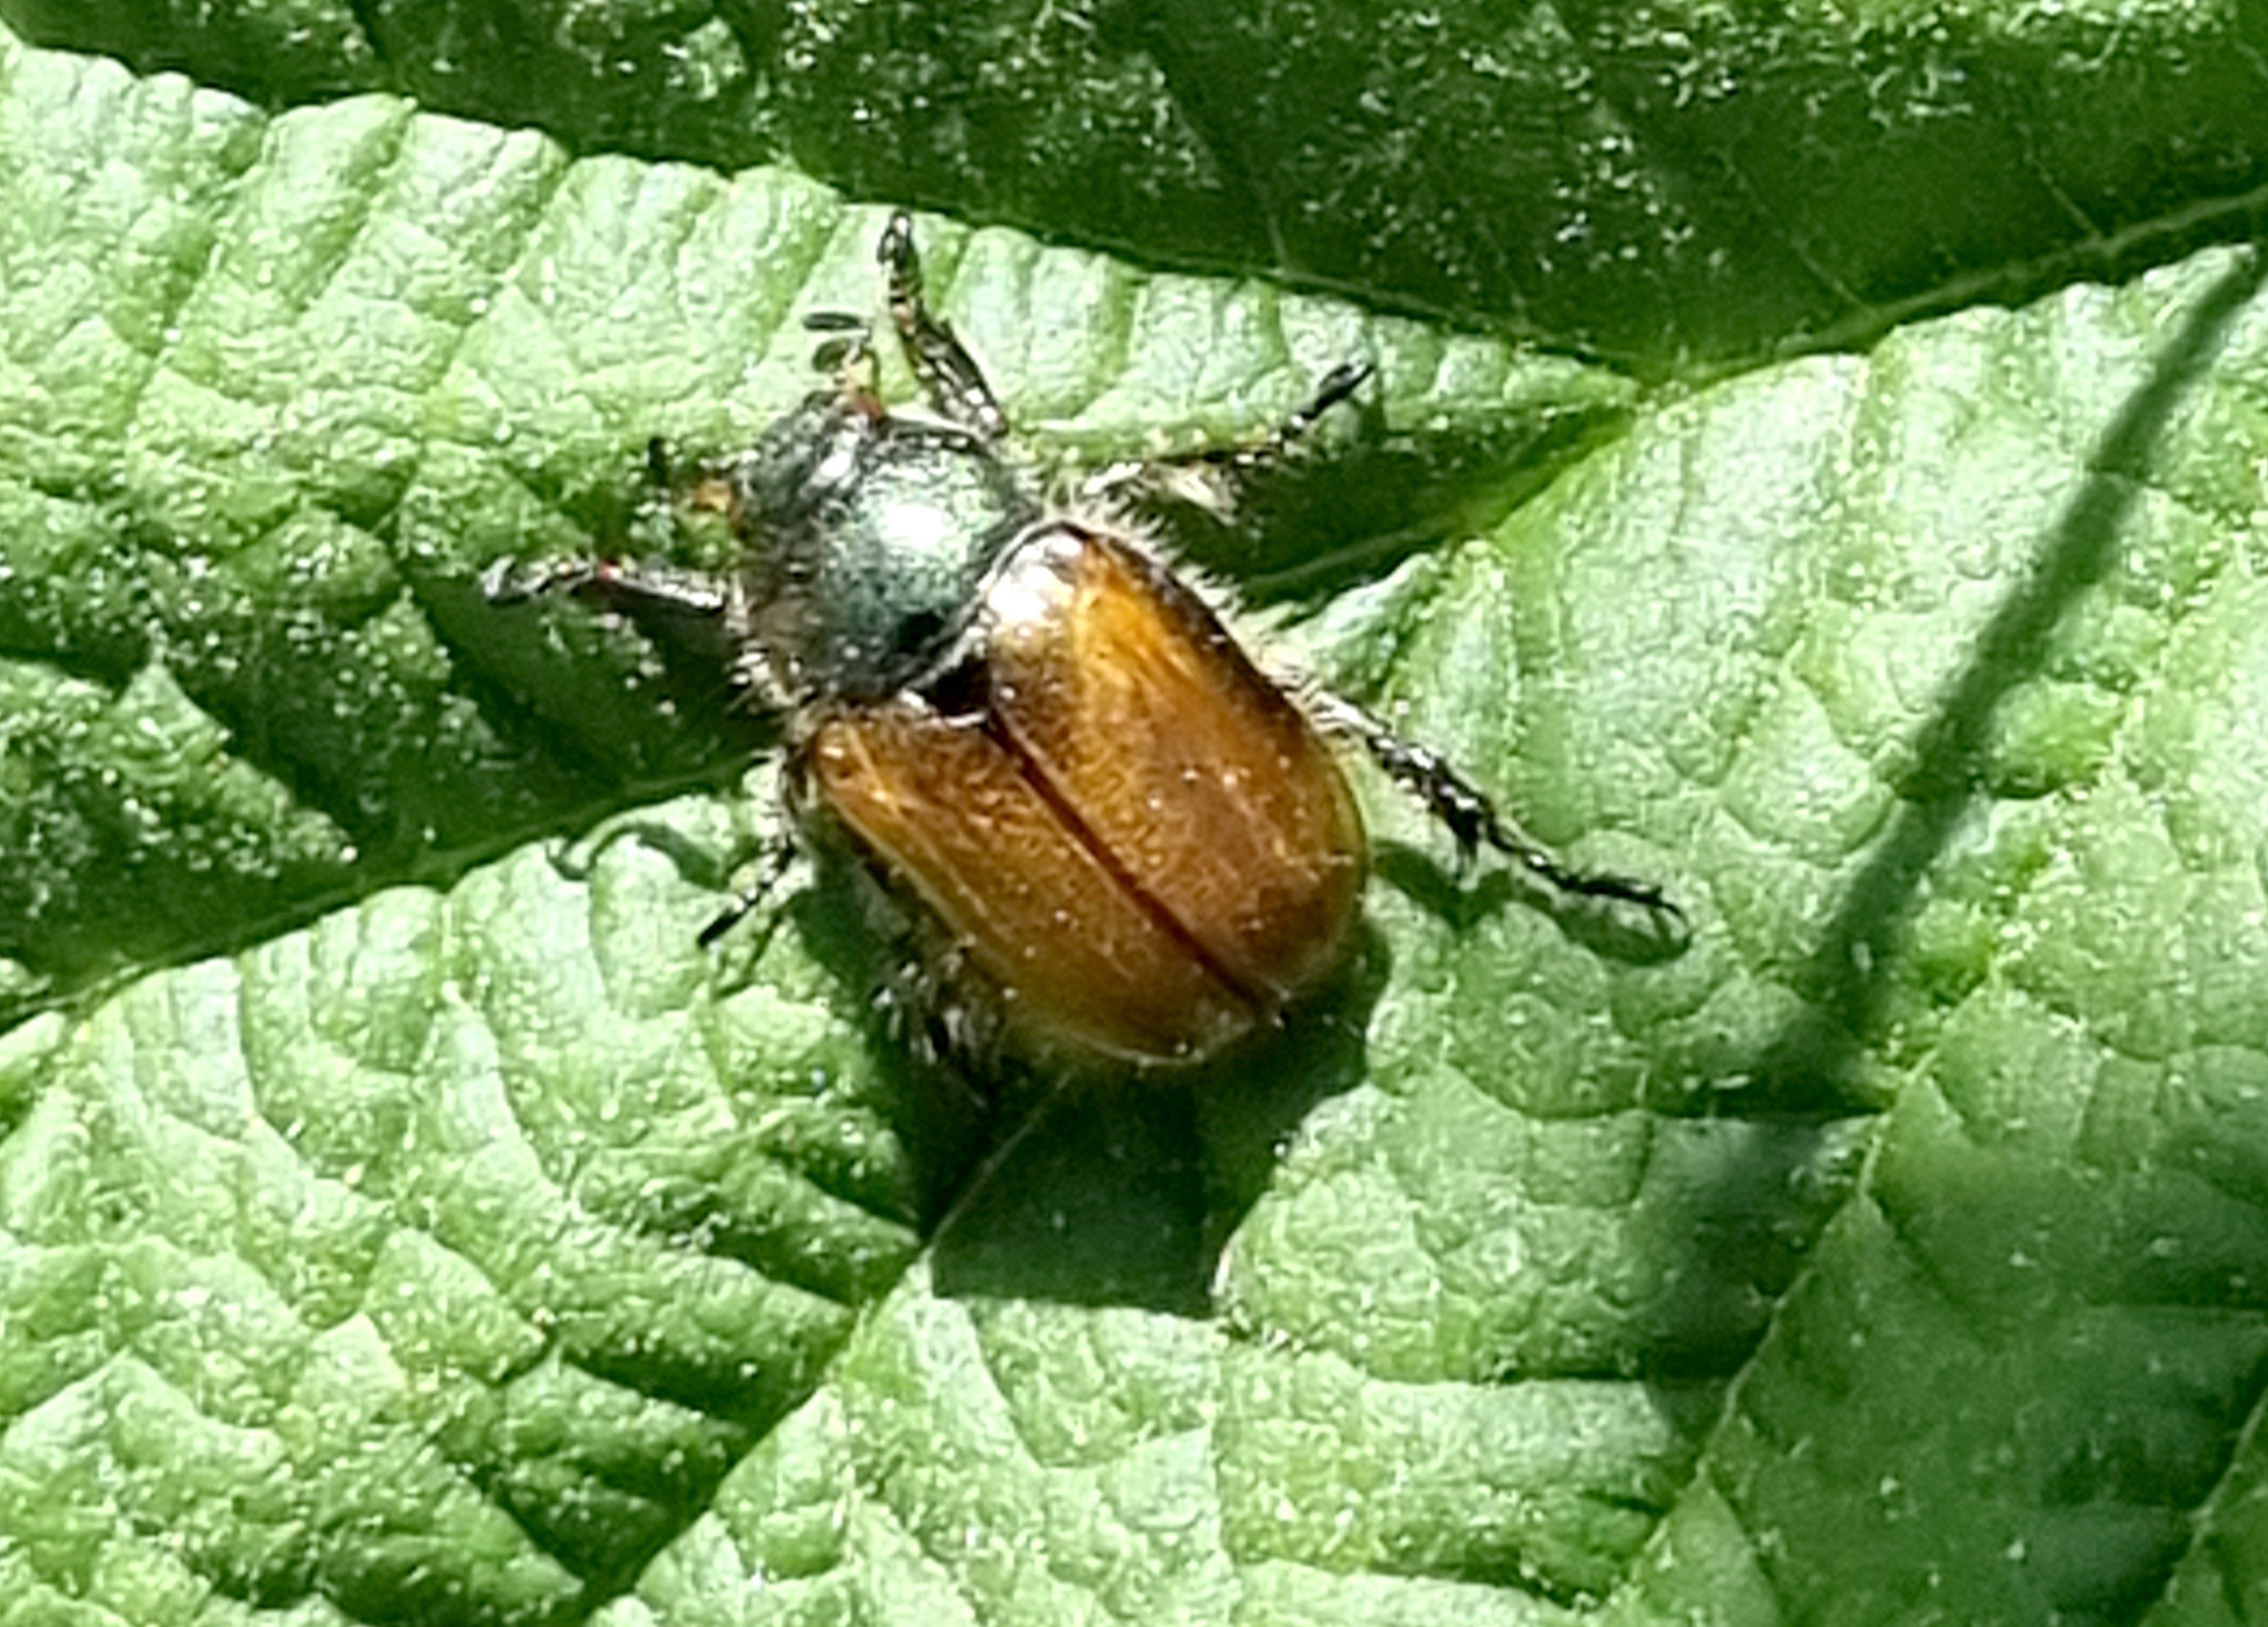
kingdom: Animalia
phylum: Arthropoda
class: Insecta
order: Coleoptera
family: Scarabaeidae
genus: Phyllopertha
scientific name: Phyllopertha horticola
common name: Gåsebille
